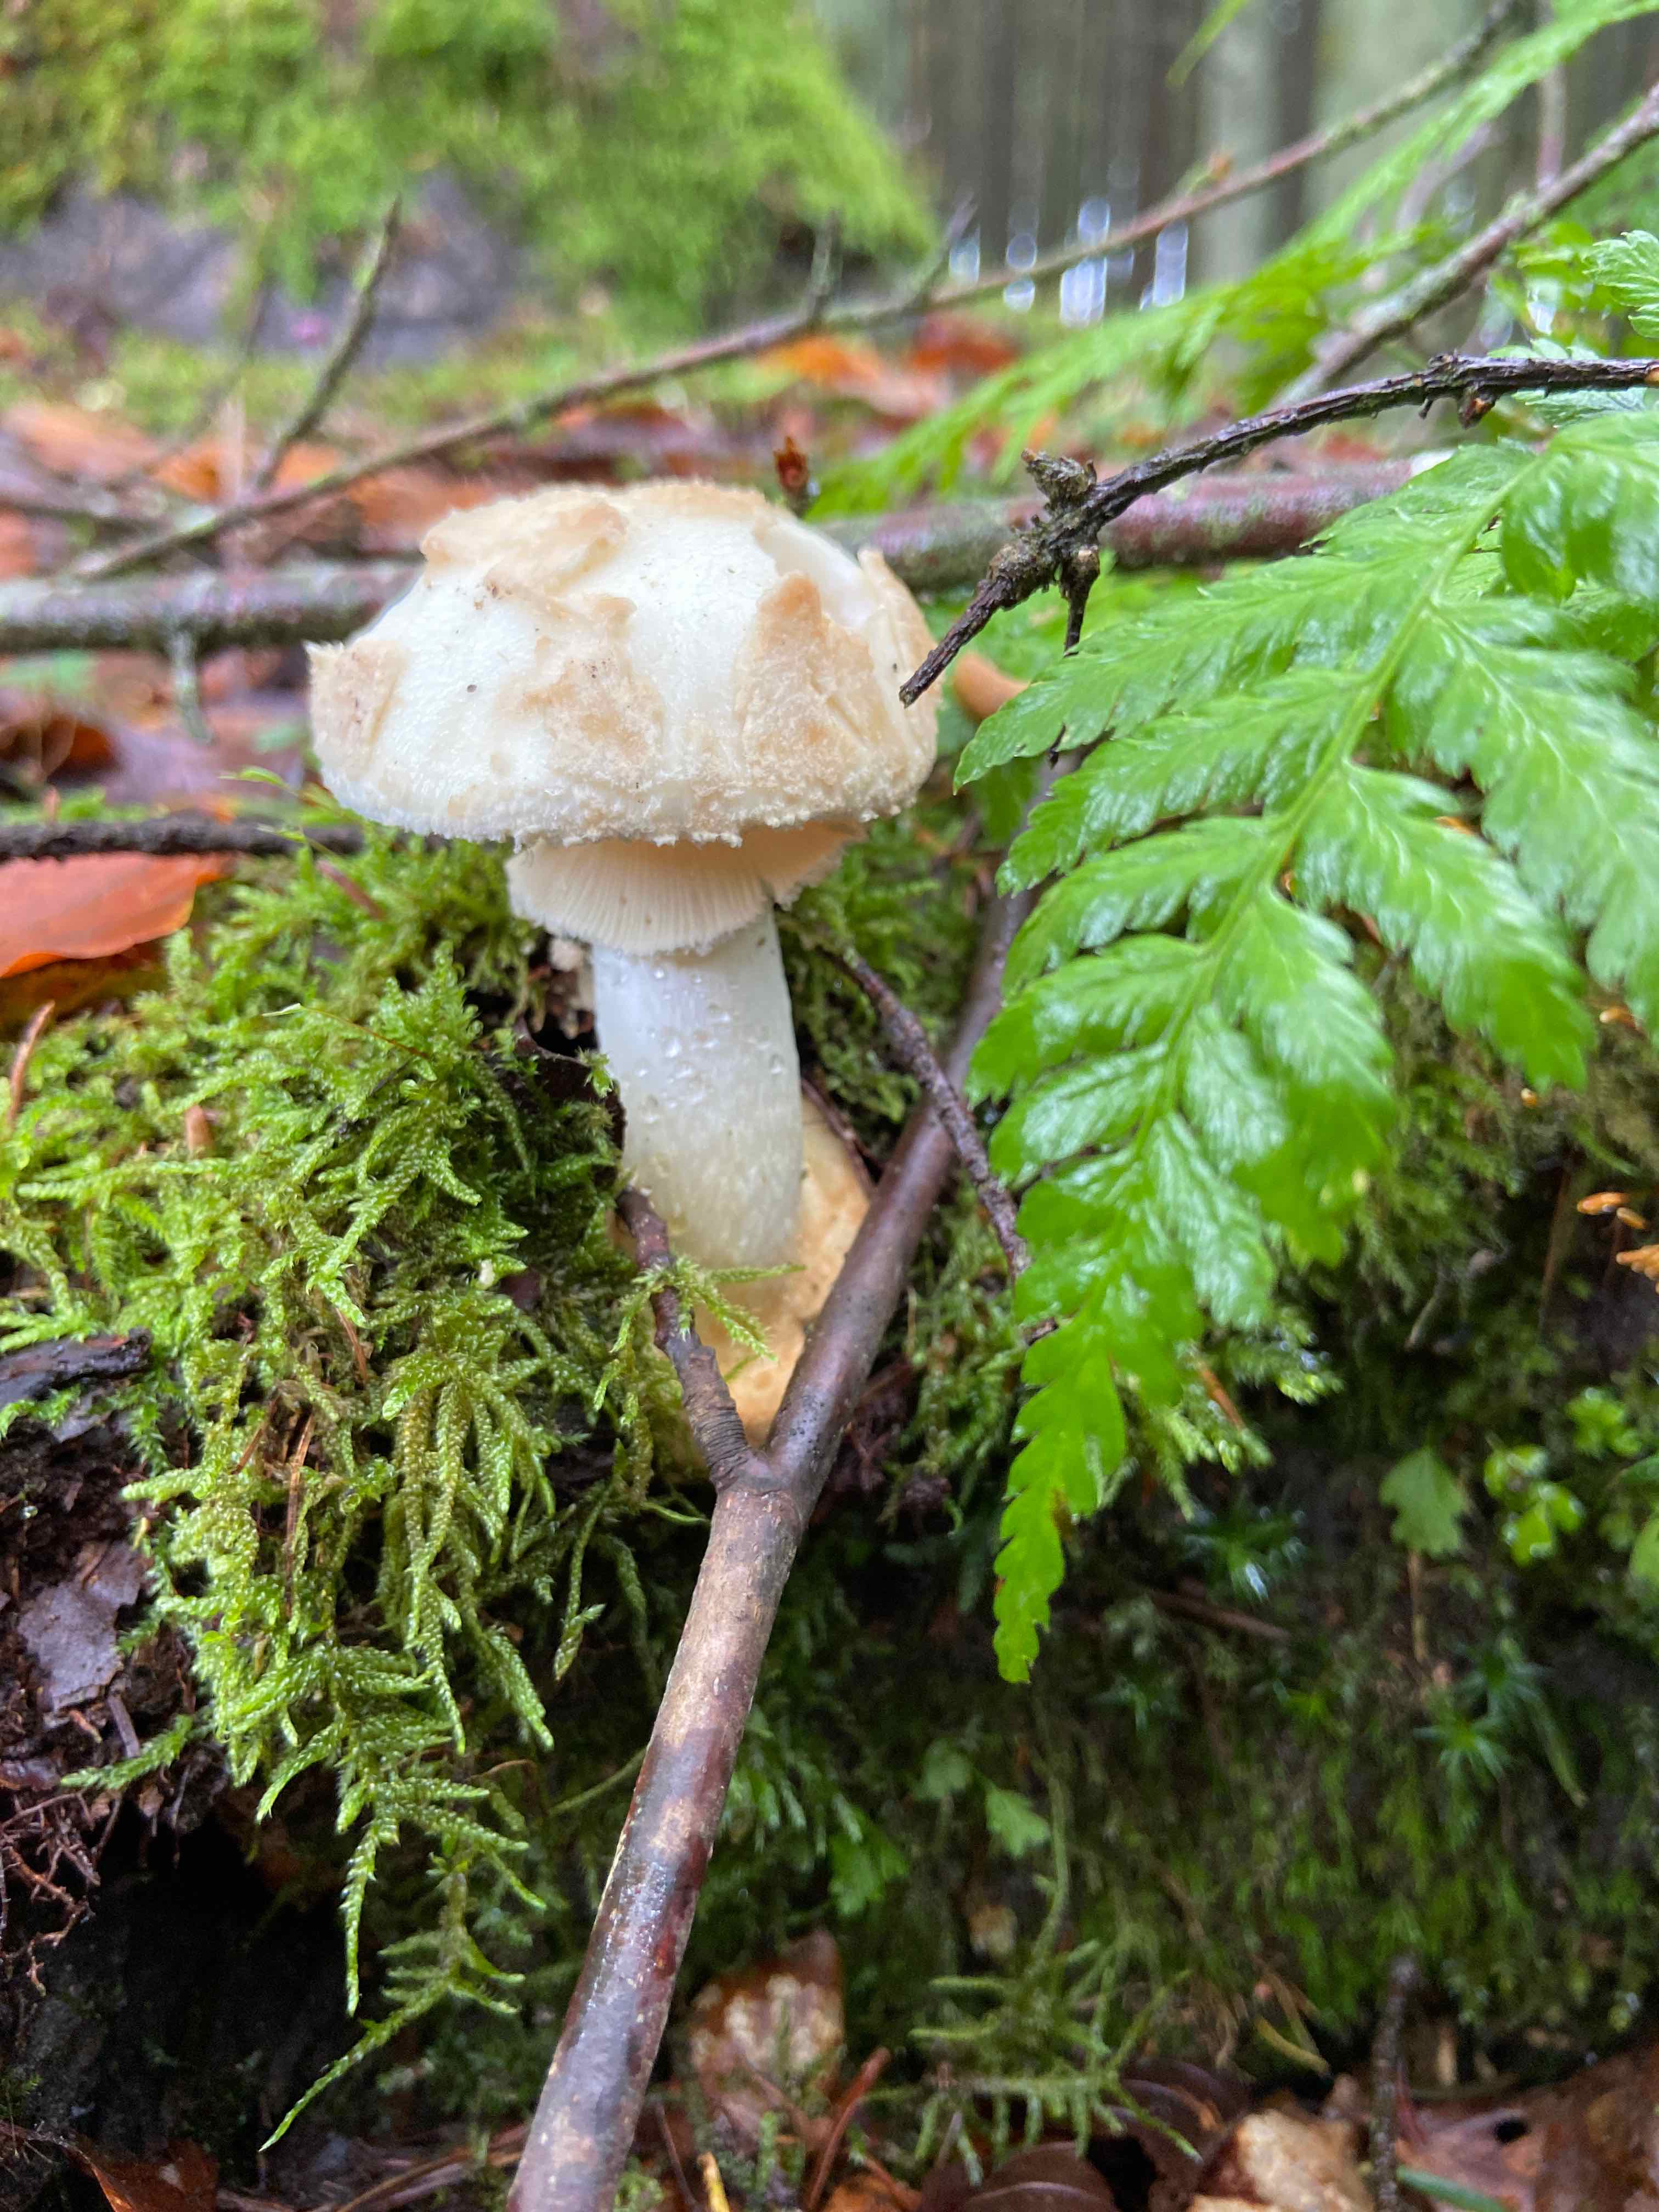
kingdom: Fungi
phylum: Basidiomycota
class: Agaricomycetes
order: Agaricales
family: Amanitaceae
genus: Amanita
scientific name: Amanita citrina
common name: kugleknoldet fluesvamp
